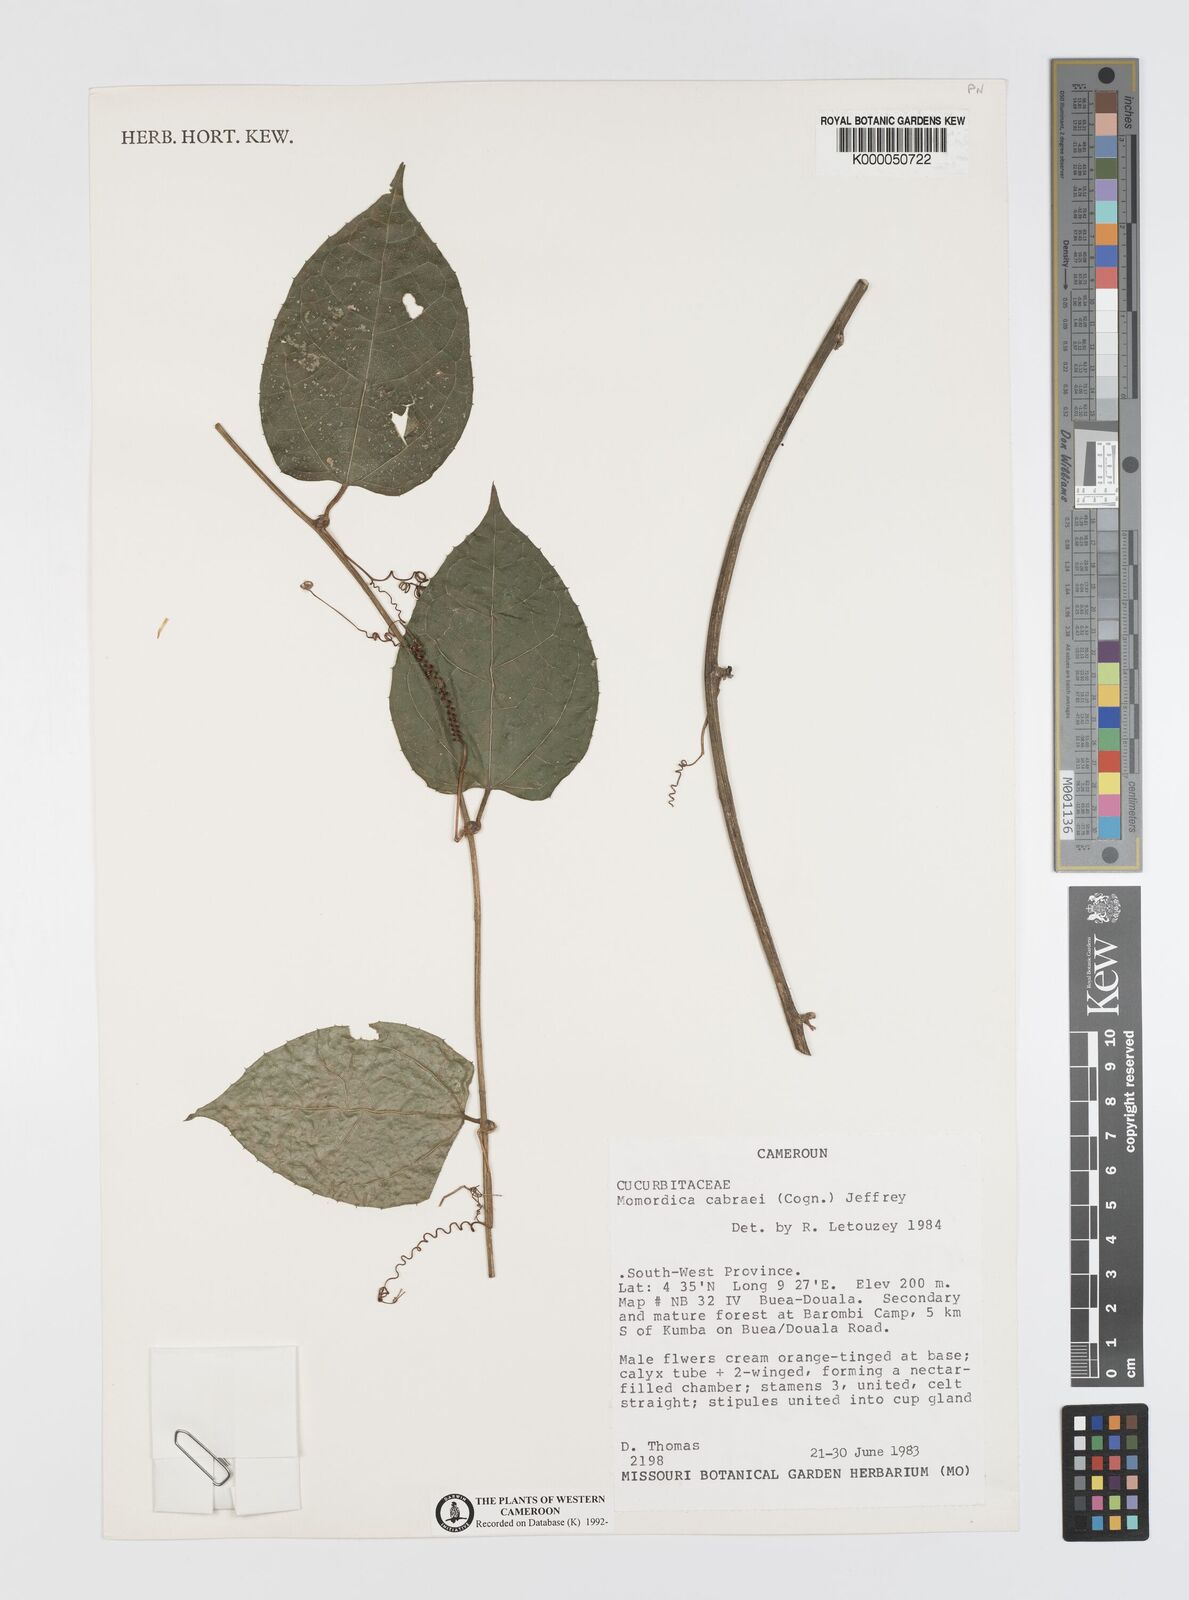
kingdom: Plantae
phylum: Tracheophyta
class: Magnoliopsida
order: Cucurbitales
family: Cucurbitaceae
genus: Momordica
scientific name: Momordica
